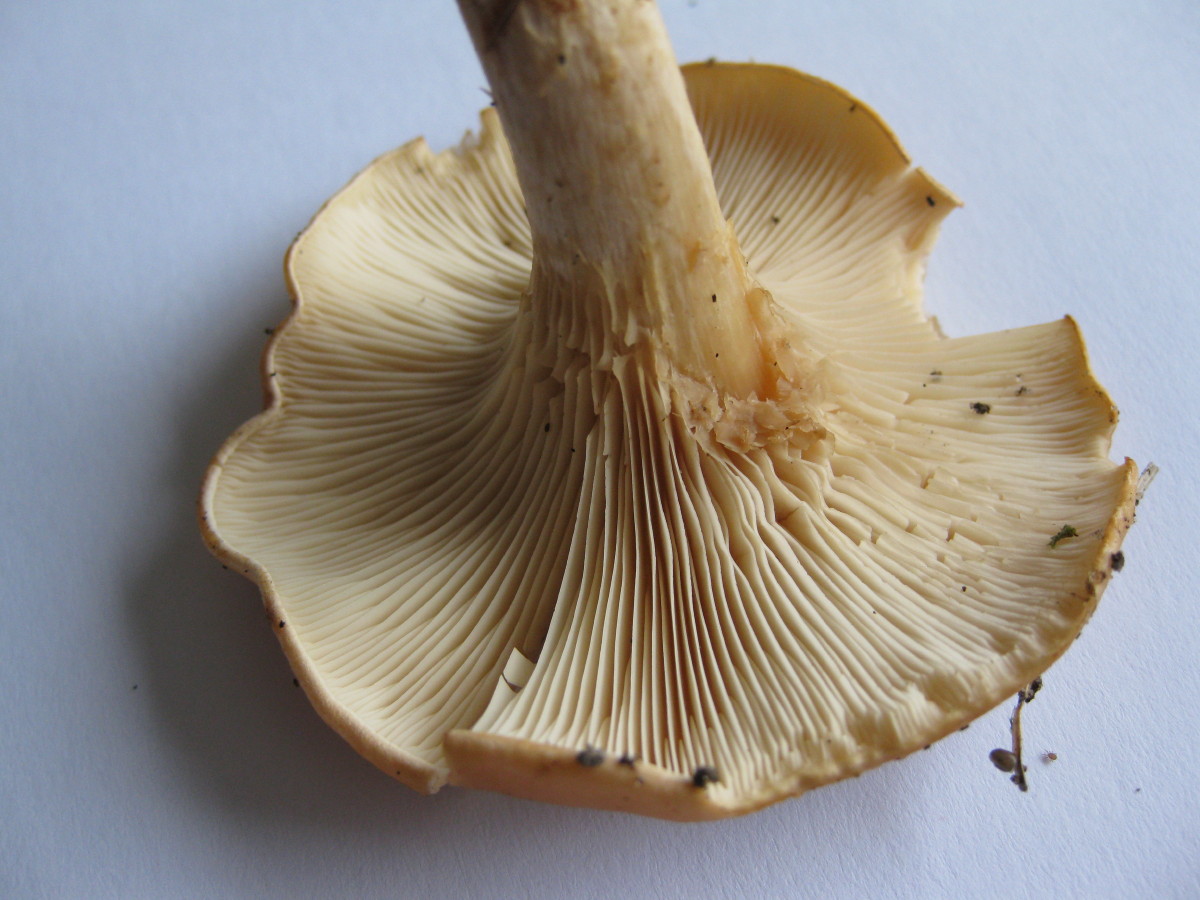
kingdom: Fungi
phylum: Basidiomycota
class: Agaricomycetes
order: Agaricales
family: Tricholomataceae
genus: Paralepista
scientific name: Paralepista flaccida
